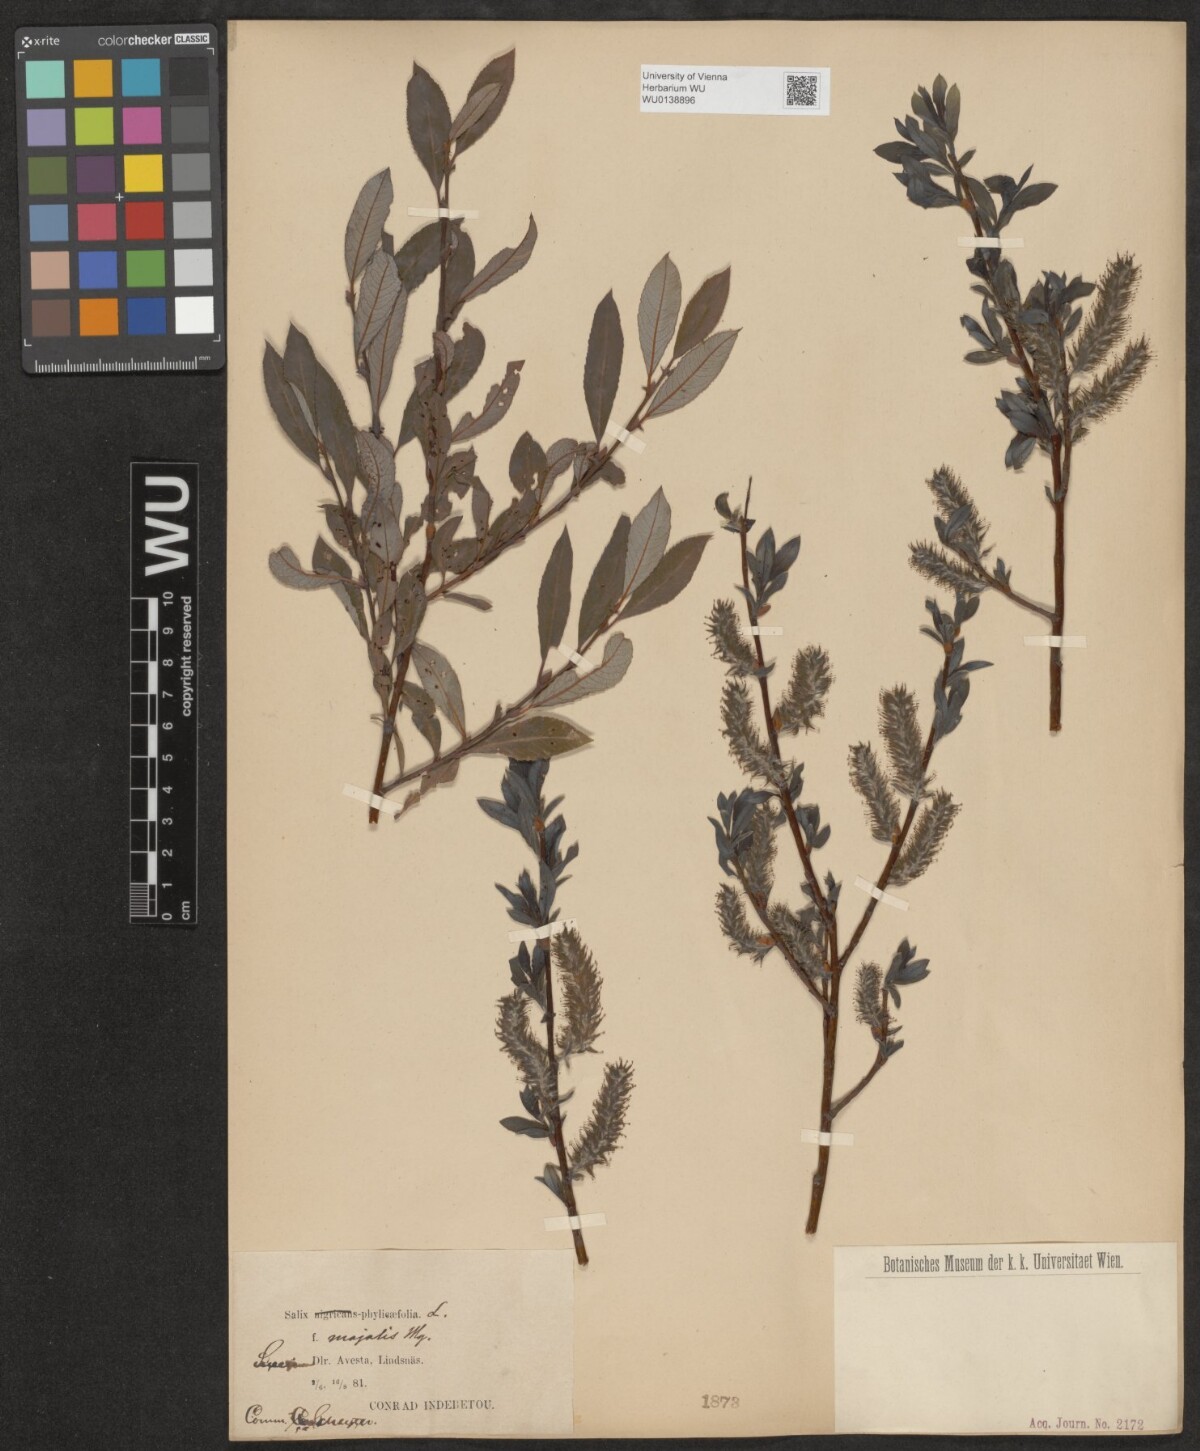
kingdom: Plantae
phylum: Tracheophyta
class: Magnoliopsida
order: Malpighiales
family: Salicaceae
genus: Salix
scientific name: Salix phylicifolia
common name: Tea-leaved willow
